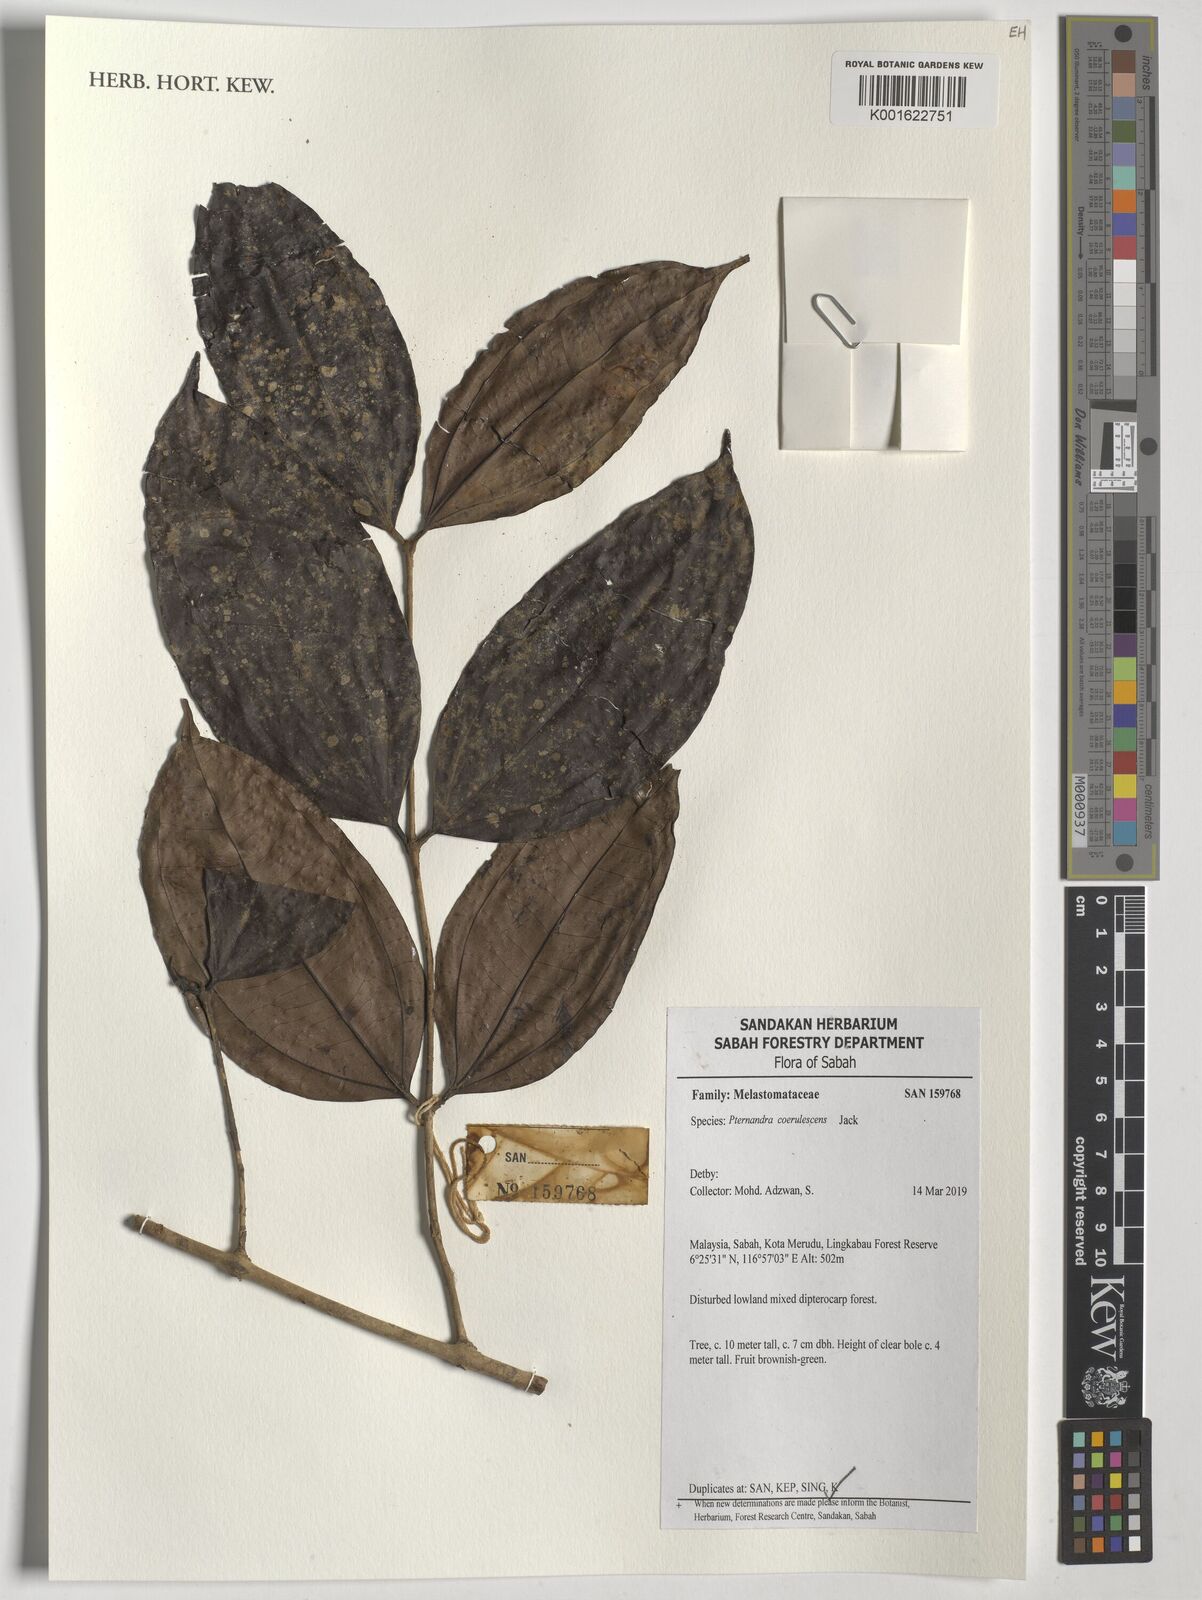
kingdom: Plantae
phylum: Tracheophyta
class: Magnoliopsida
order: Myrtales
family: Melastomataceae
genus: Pternandra
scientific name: Pternandra coerulescens
